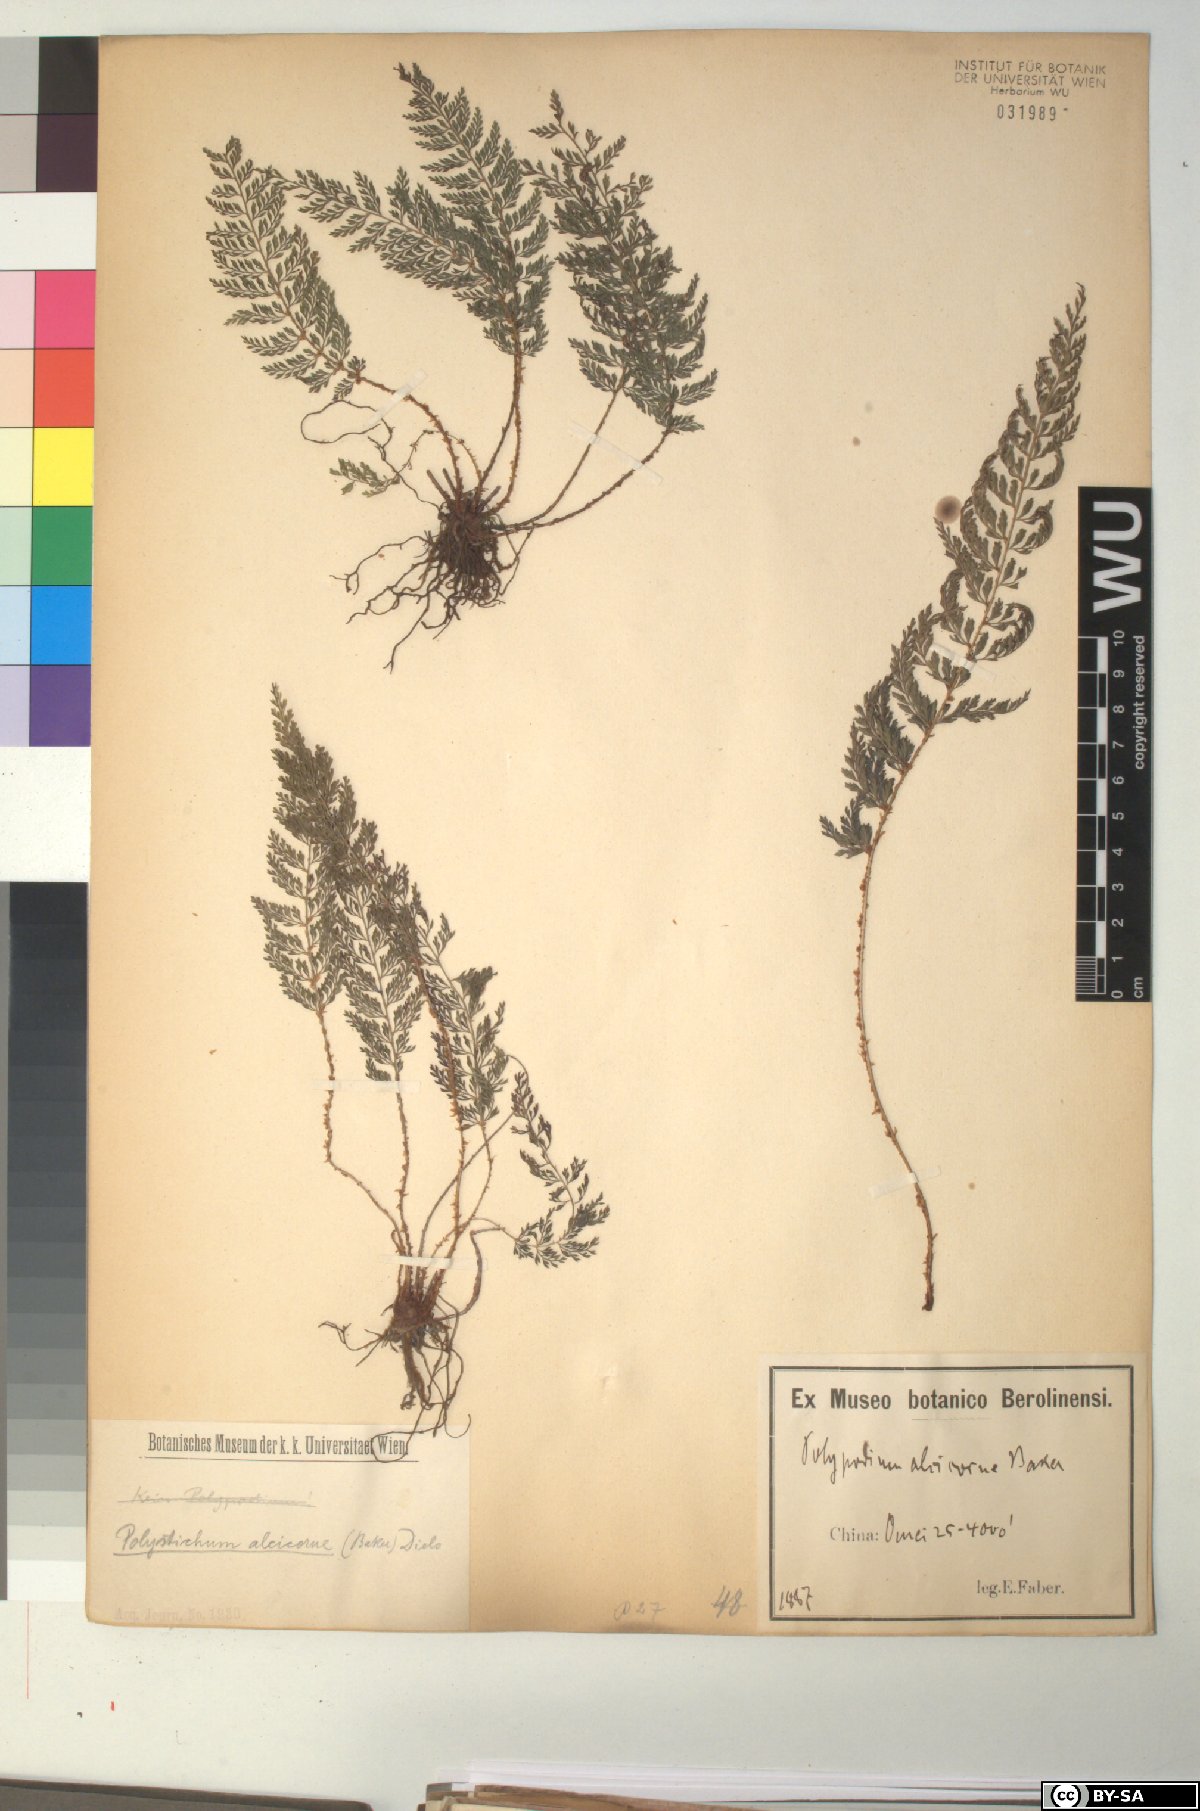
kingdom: Plantae
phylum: Tracheophyta
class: Polypodiopsida
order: Polypodiales
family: Dryopteridaceae
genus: Polystichum
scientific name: Polystichum alcicorne
